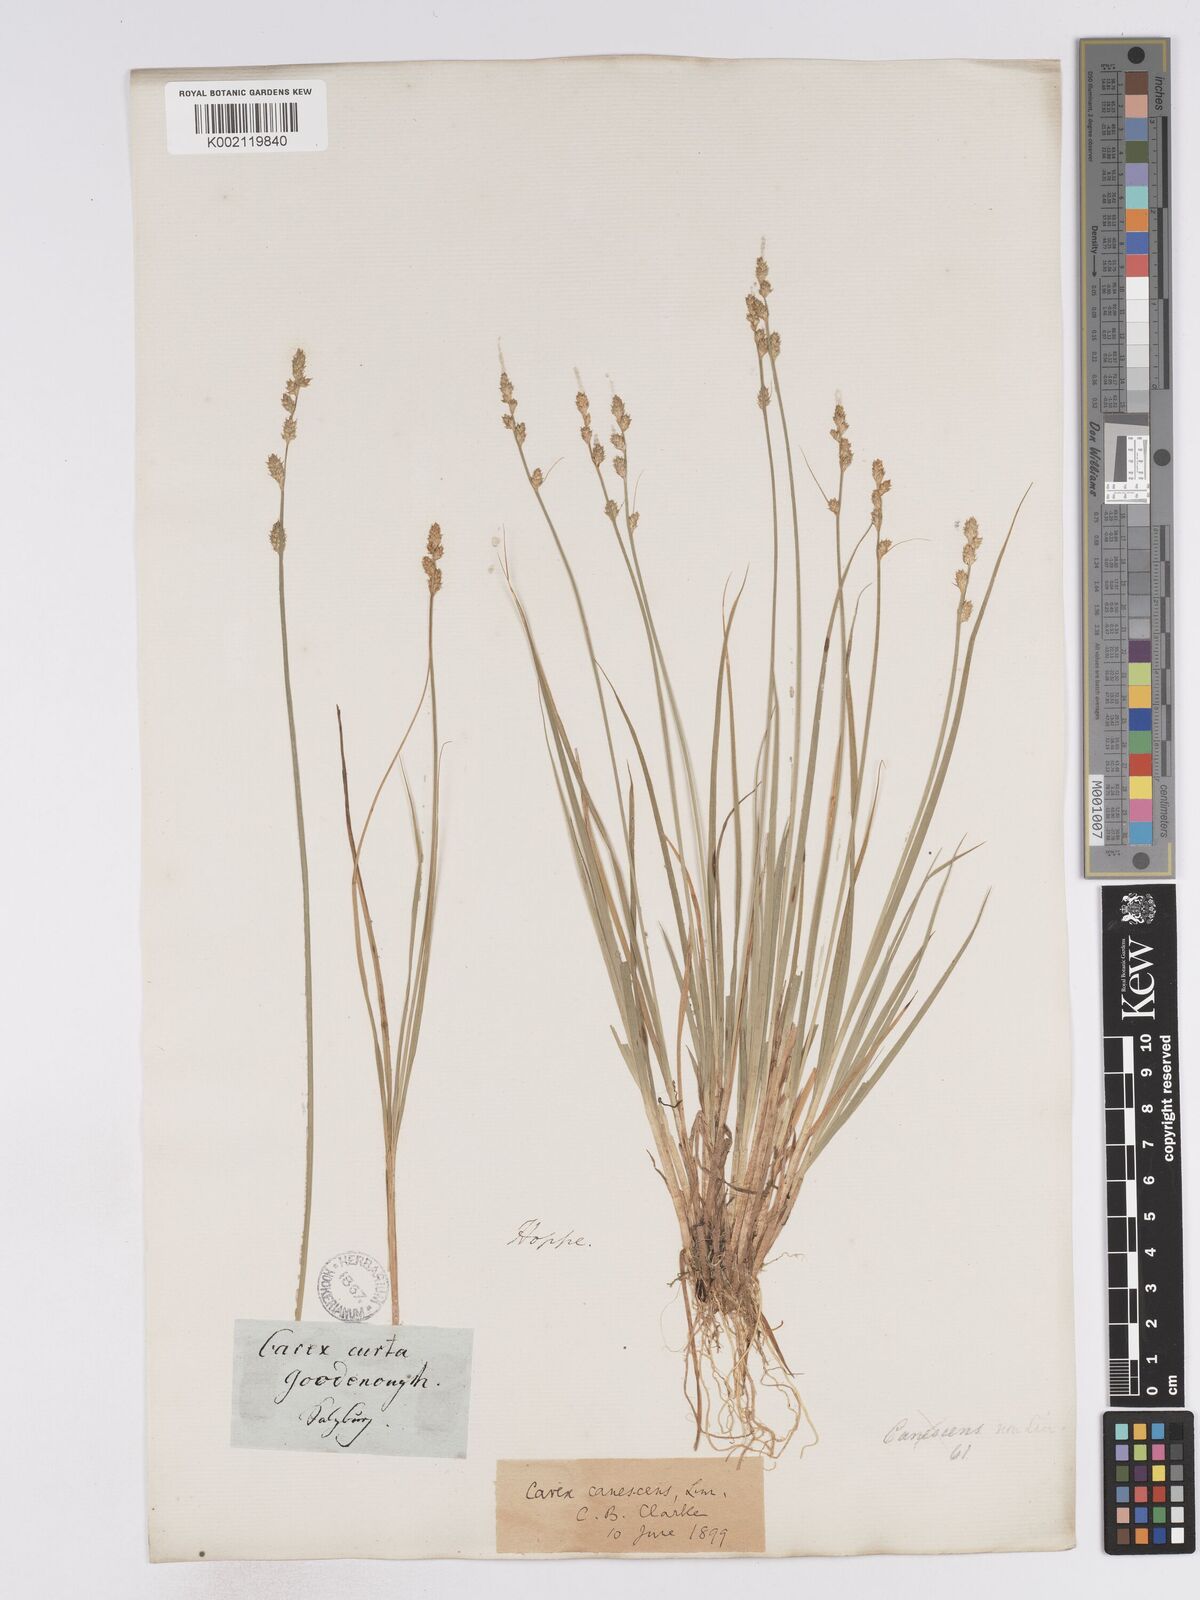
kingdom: Plantae
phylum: Tracheophyta
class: Liliopsida
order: Poales
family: Cyperaceae
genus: Carex
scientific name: Carex curta
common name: White sedge
